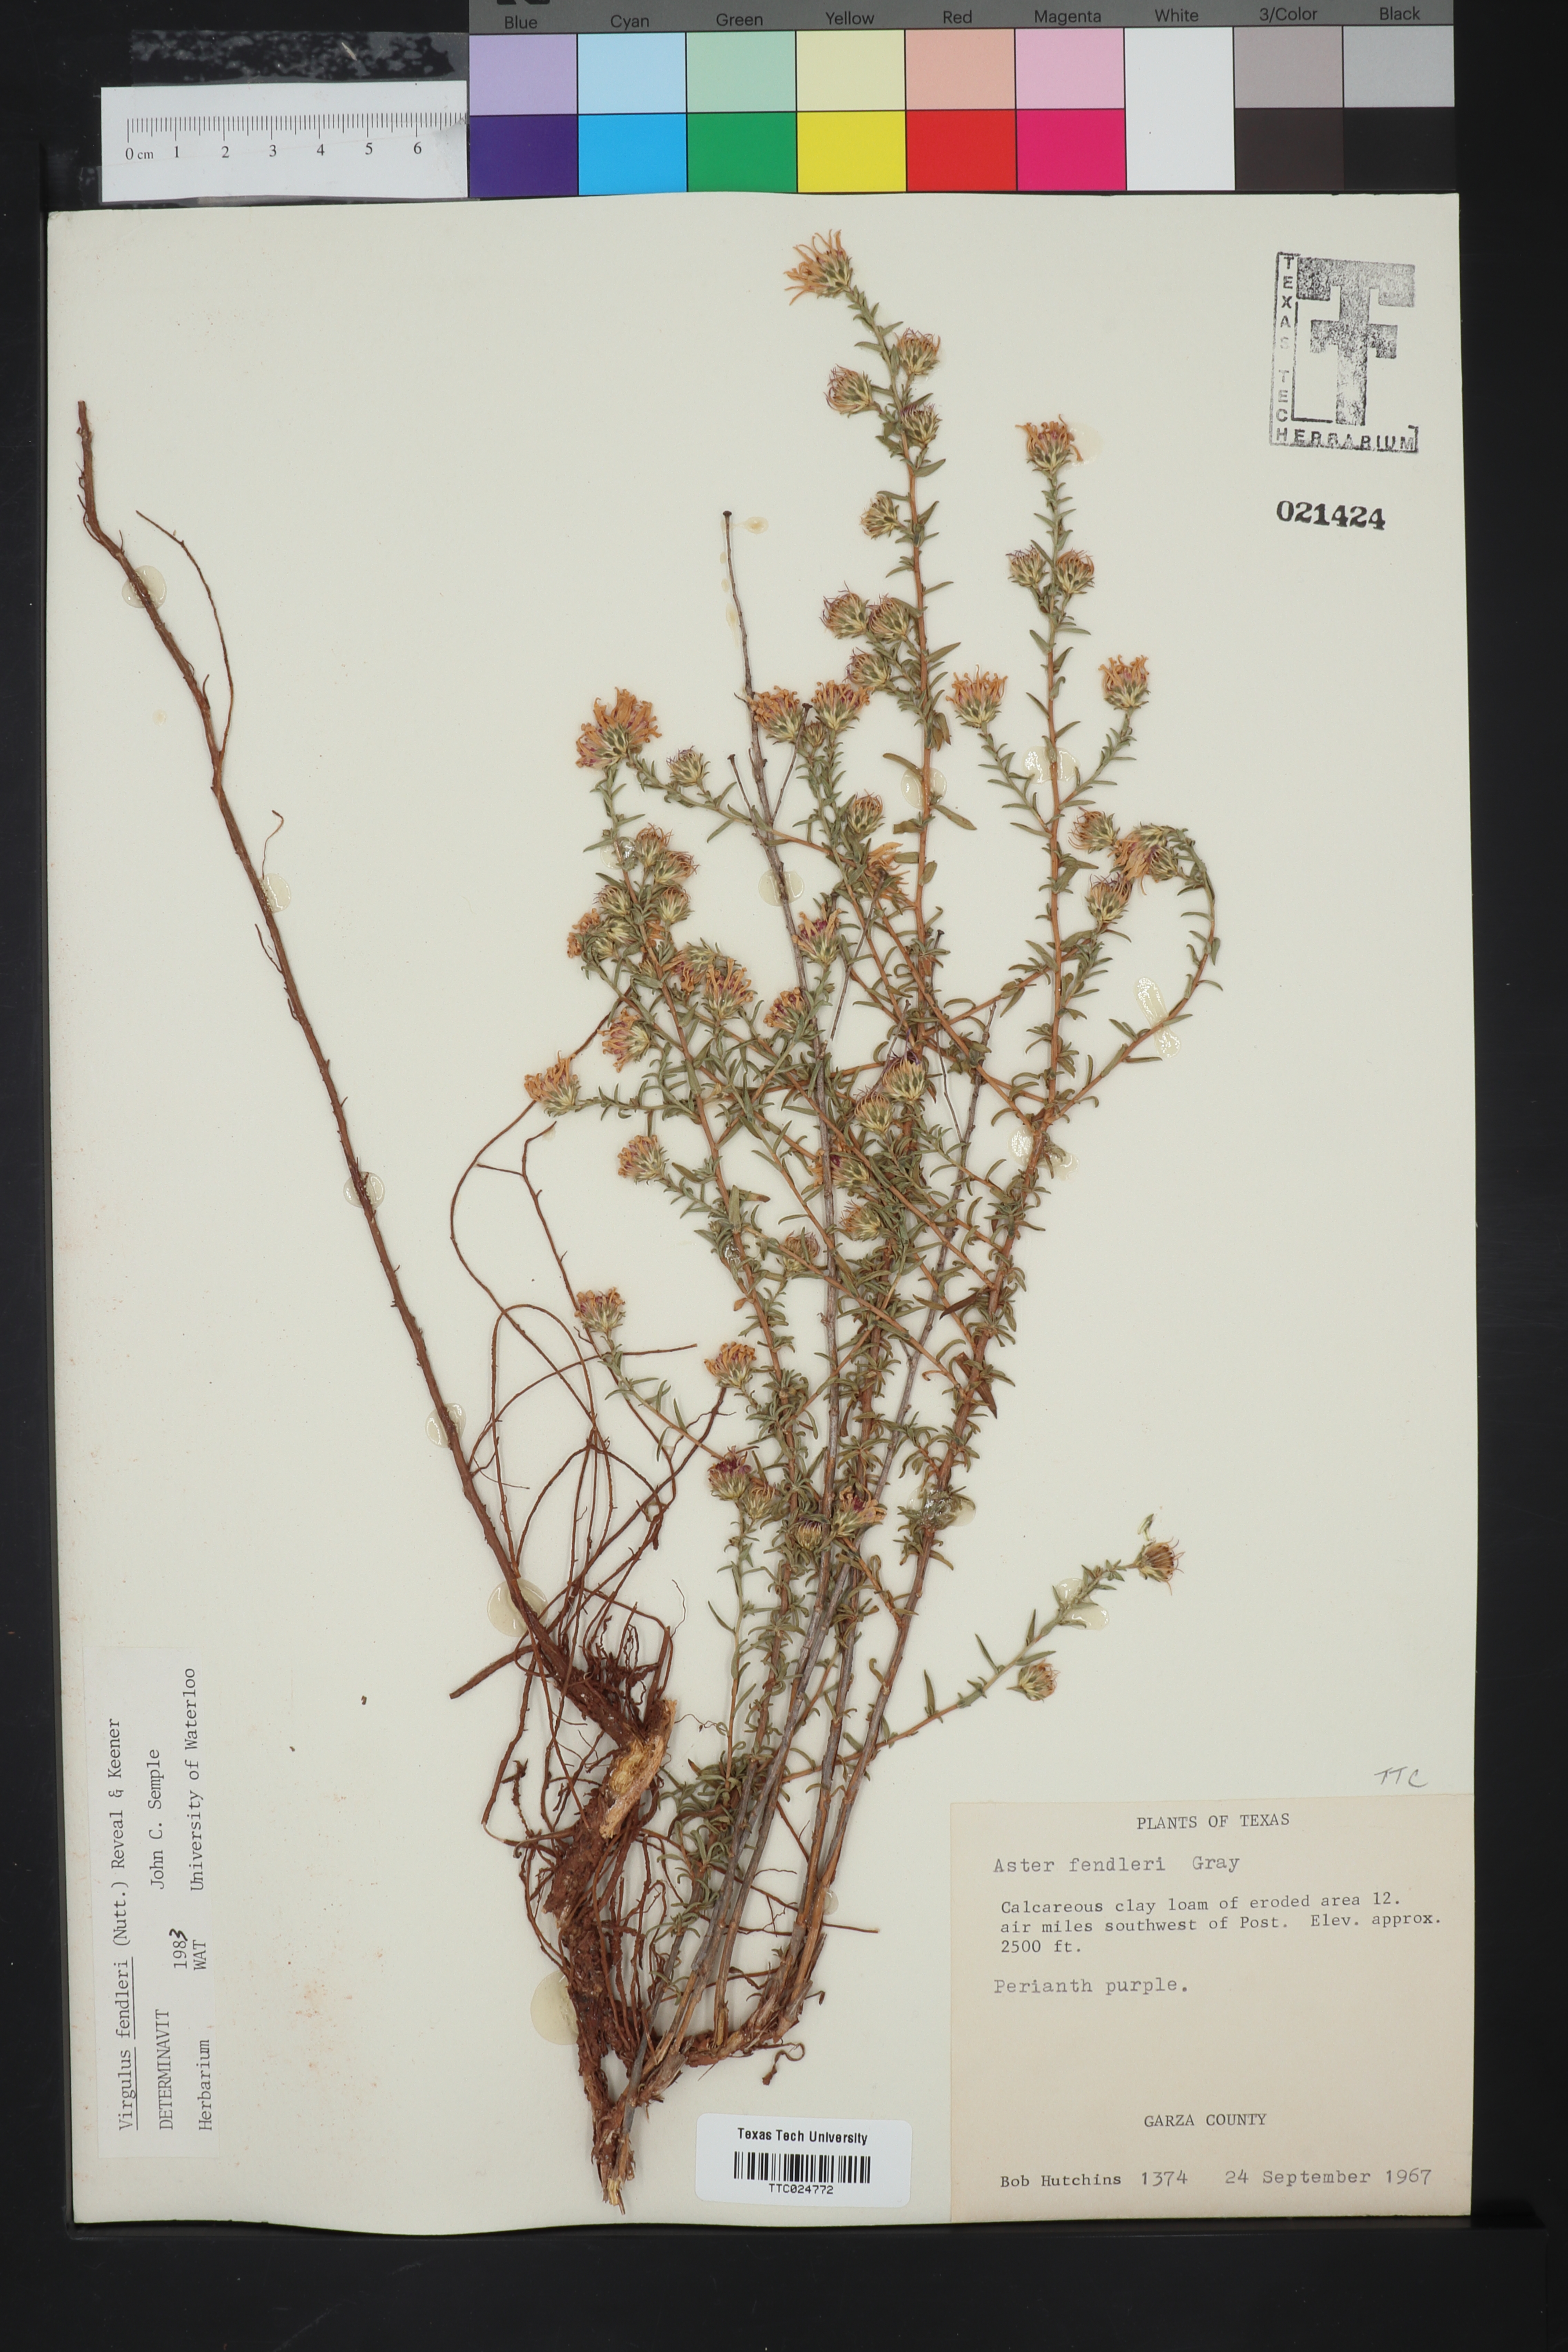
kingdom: Plantae
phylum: Tracheophyta
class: Magnoliopsida
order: Asterales
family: Asteraceae
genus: Symphyotrichum
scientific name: Symphyotrichum fendleri
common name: Fendler's aster
